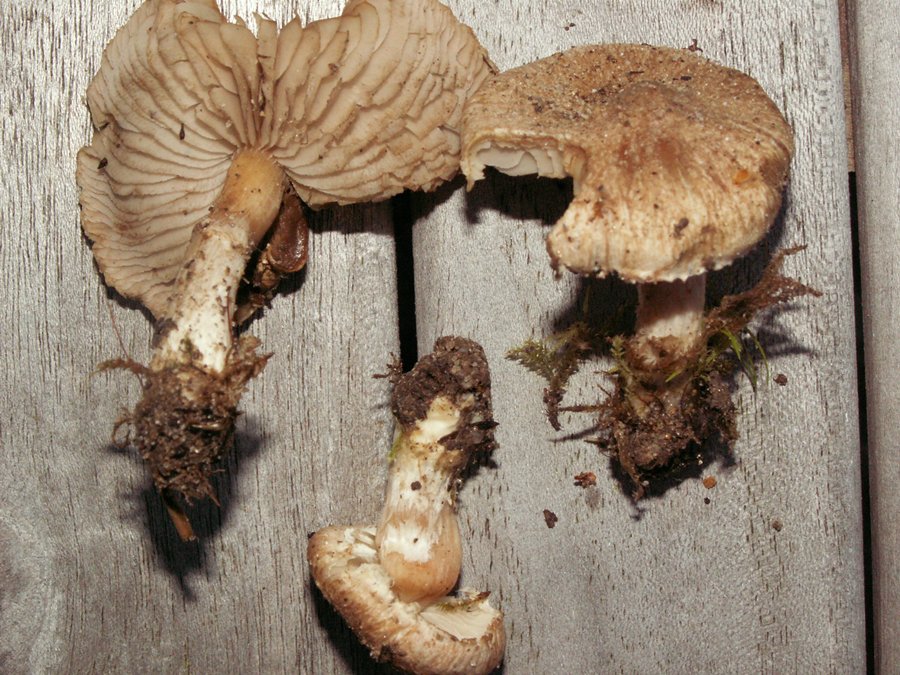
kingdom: Fungi
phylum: Basidiomycota
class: Agaricomycetes
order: Agaricales
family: Inocybaceae
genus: Inocybe
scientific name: Inocybe
